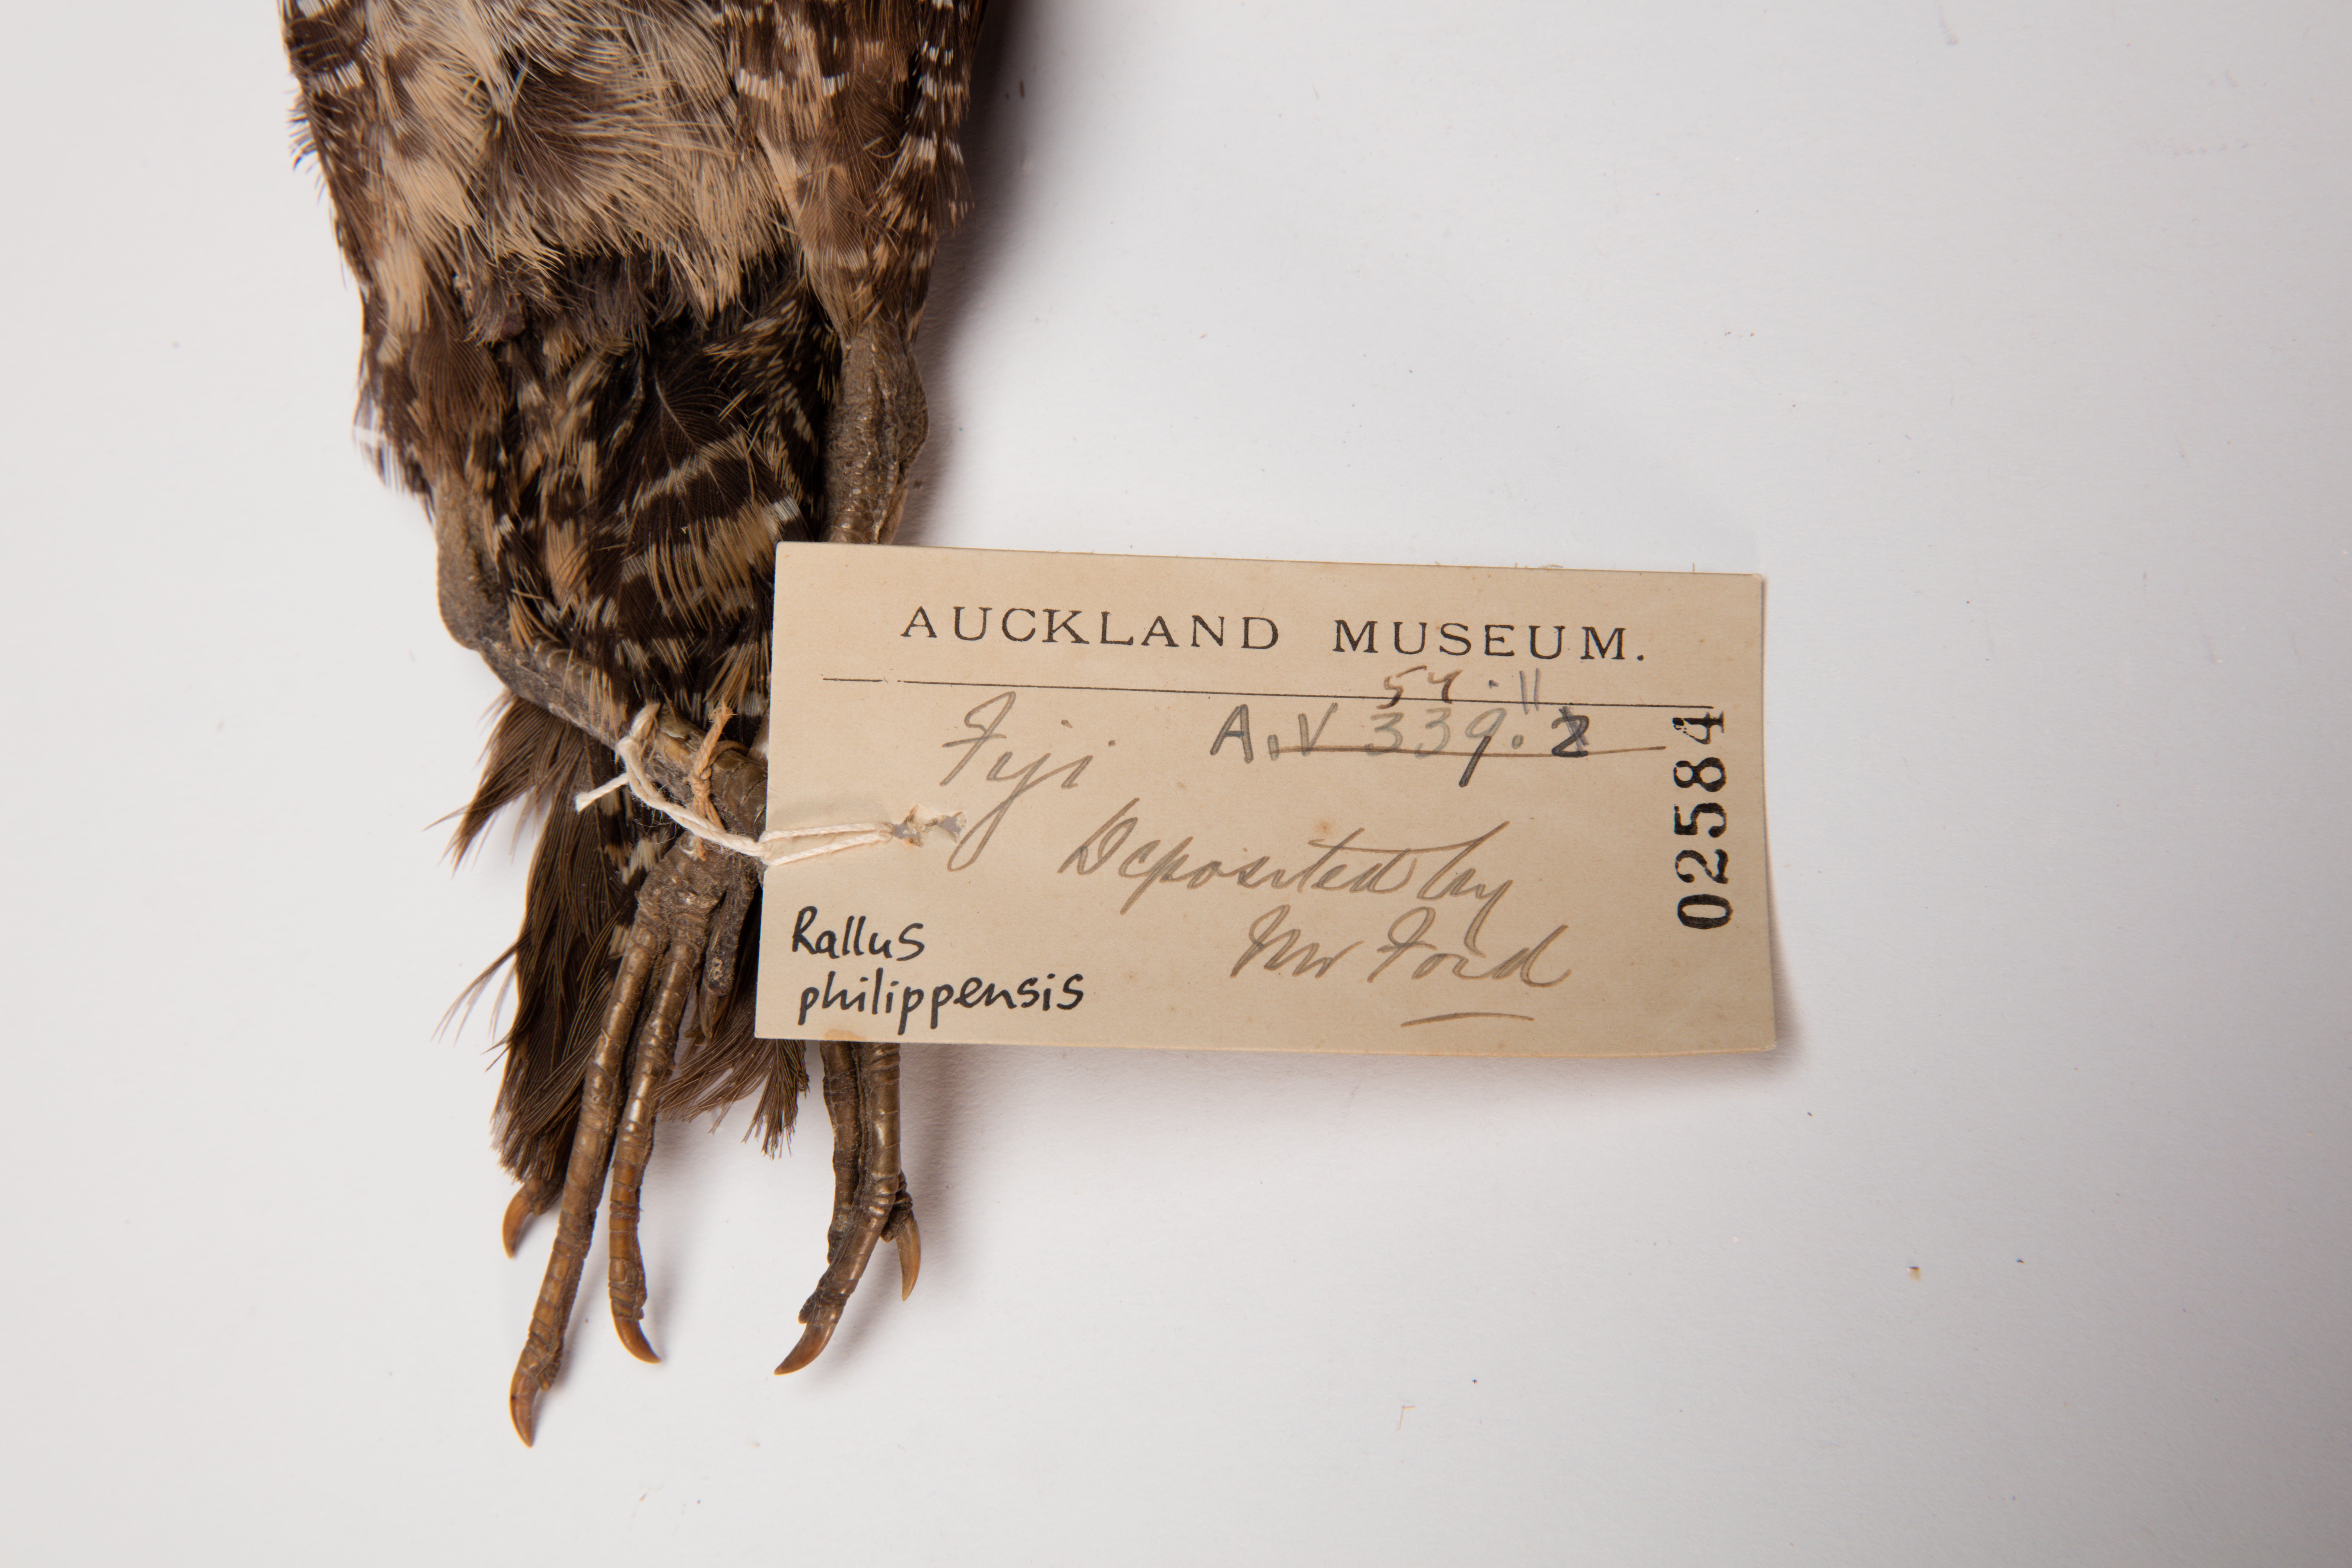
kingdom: Animalia
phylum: Chordata
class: Aves
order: Gruiformes
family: Rallidae
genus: Gallirallus
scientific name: Gallirallus philippensis
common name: Buff-banded rail
